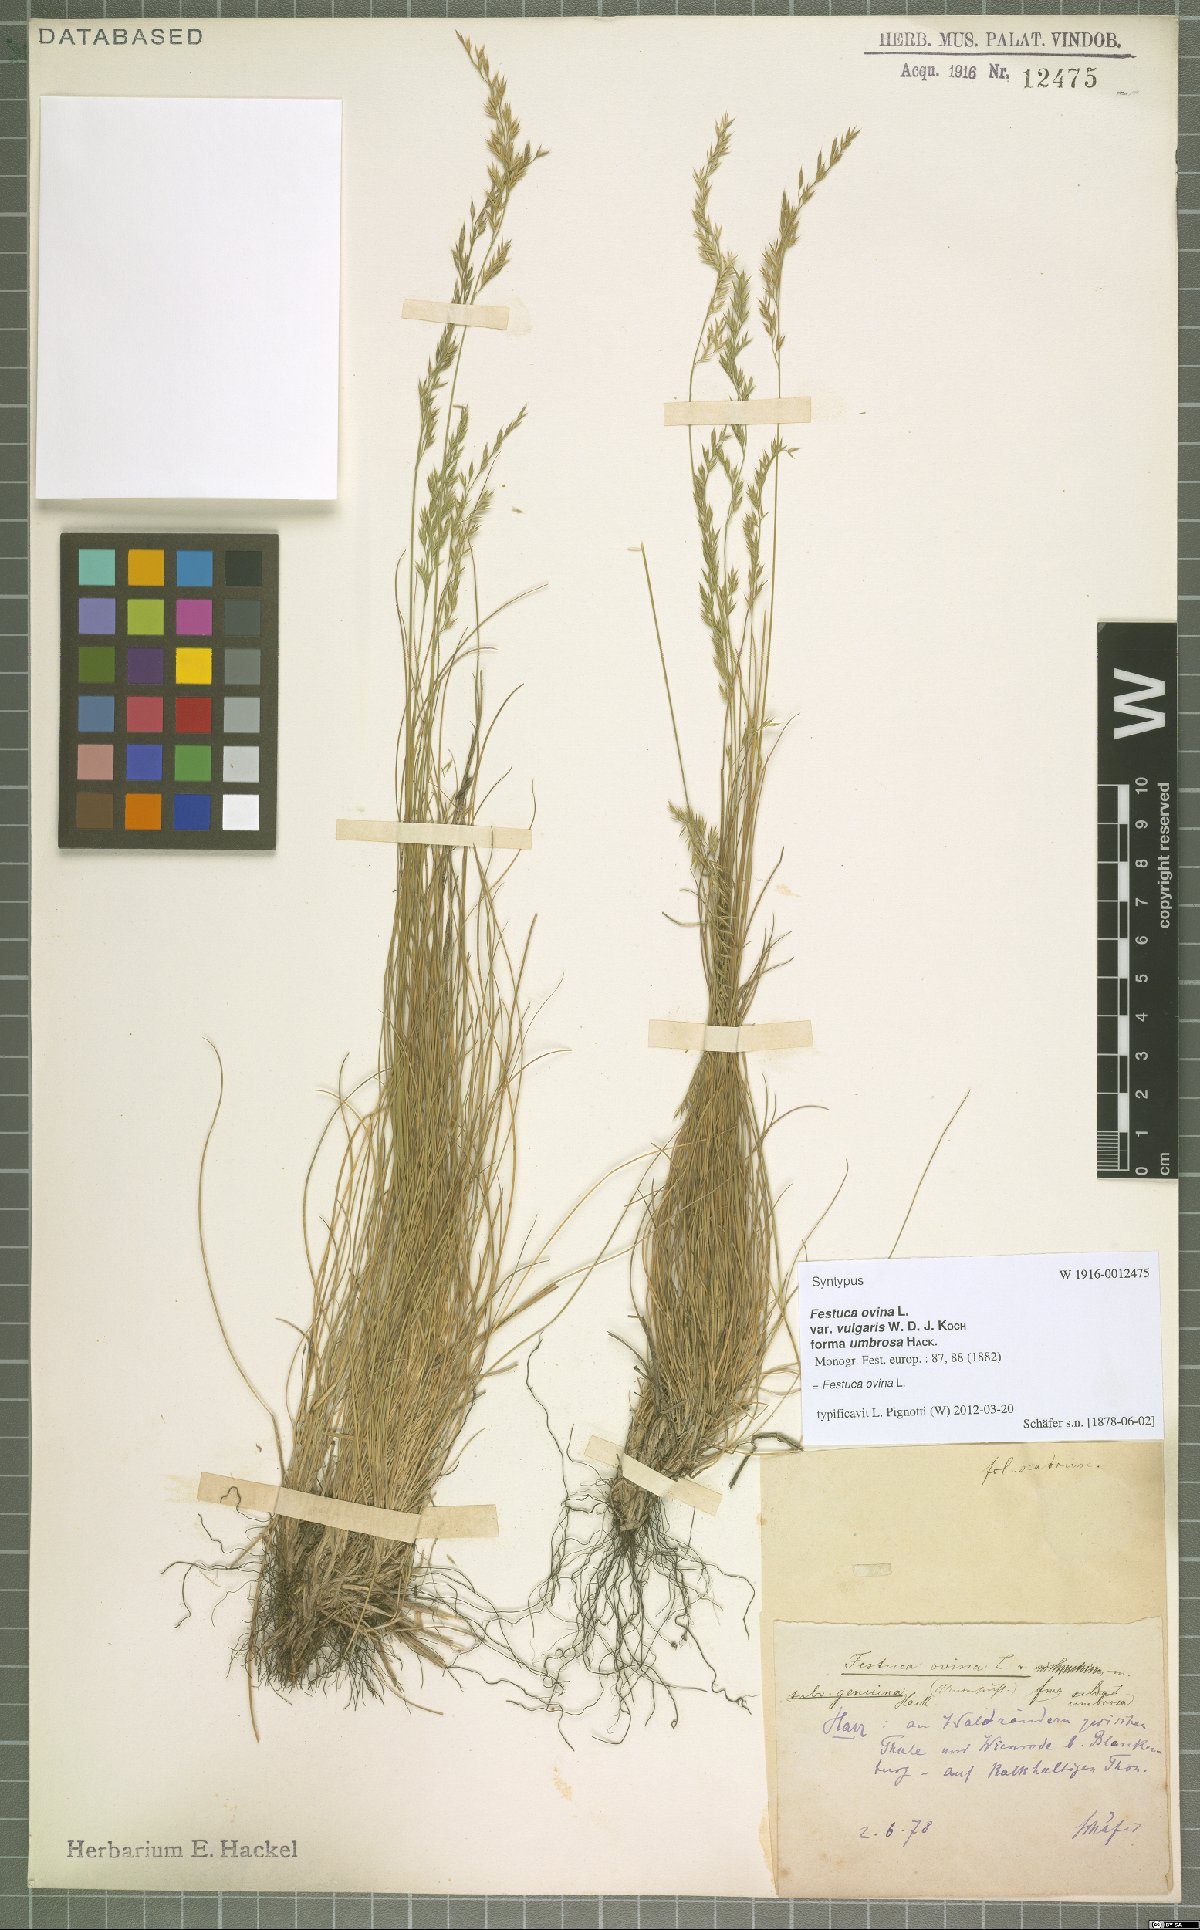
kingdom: Plantae
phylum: Tracheophyta
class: Liliopsida
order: Poales
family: Poaceae
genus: Festuca
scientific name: Festuca ovina
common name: Sheep fescue
